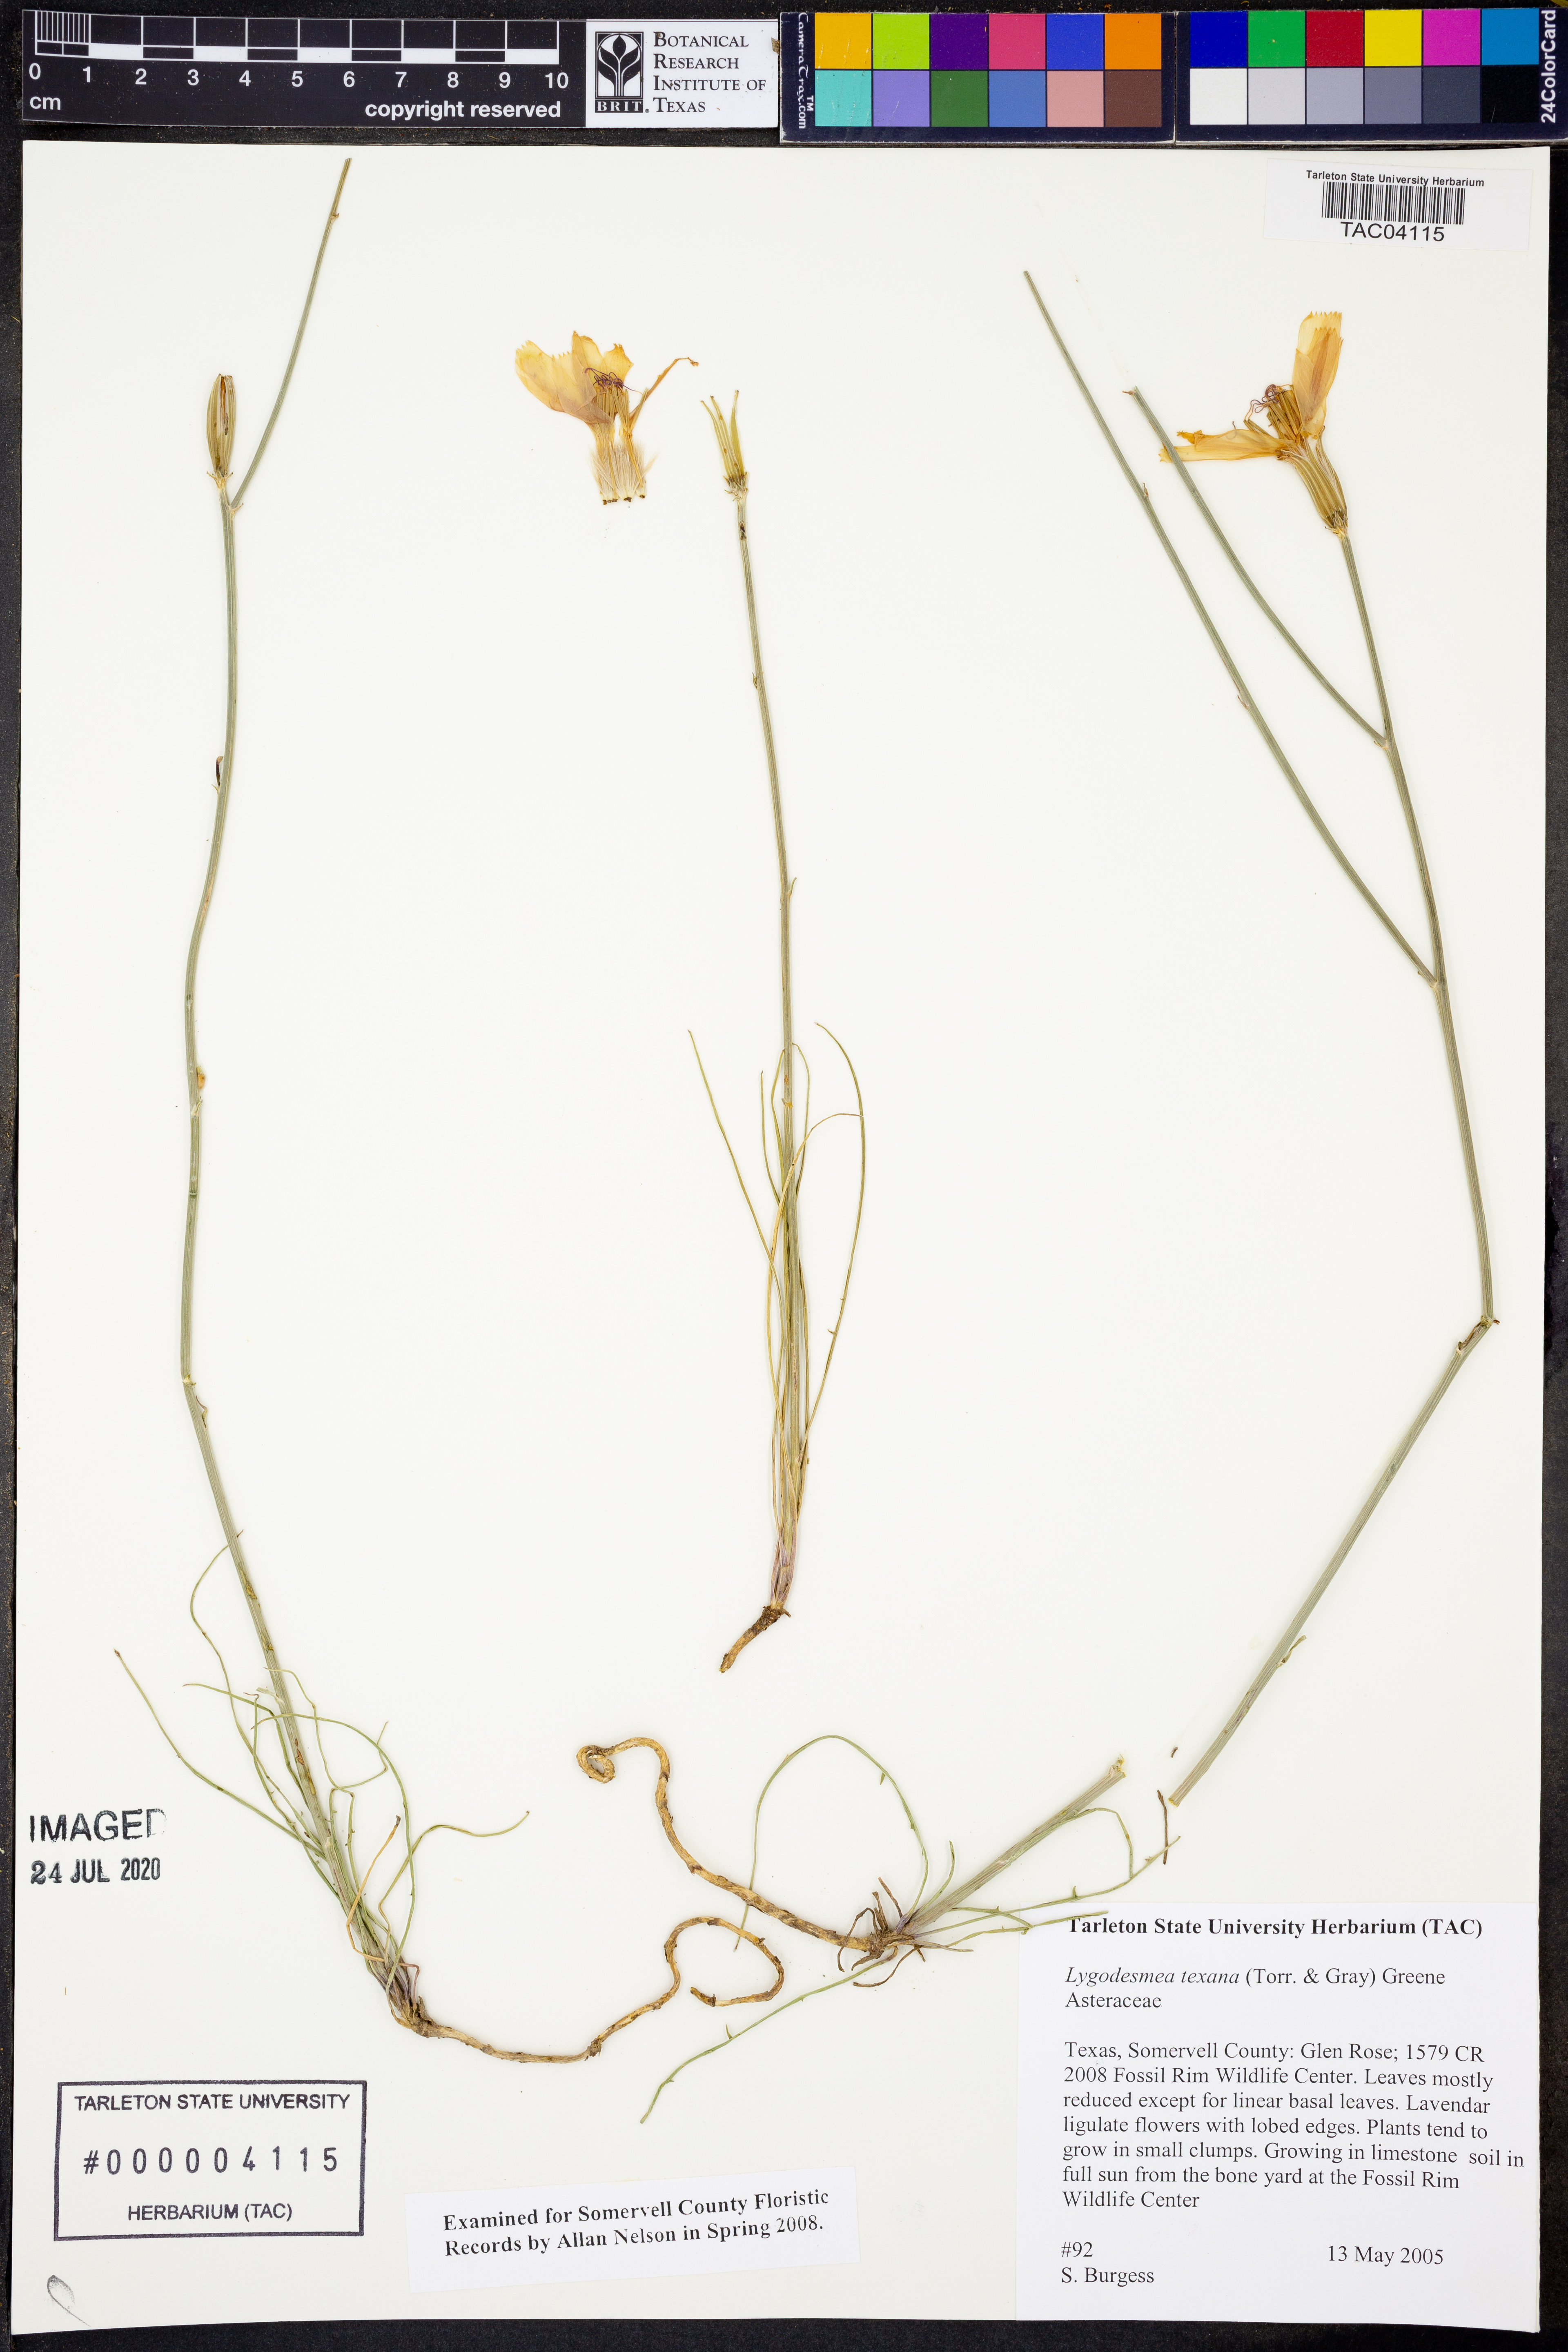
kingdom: Plantae
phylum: Tracheophyta
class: Magnoliopsida
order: Asterales
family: Asteraceae
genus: Lygodesmia
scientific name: Lygodesmia texana
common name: Texas skeleton-plant
